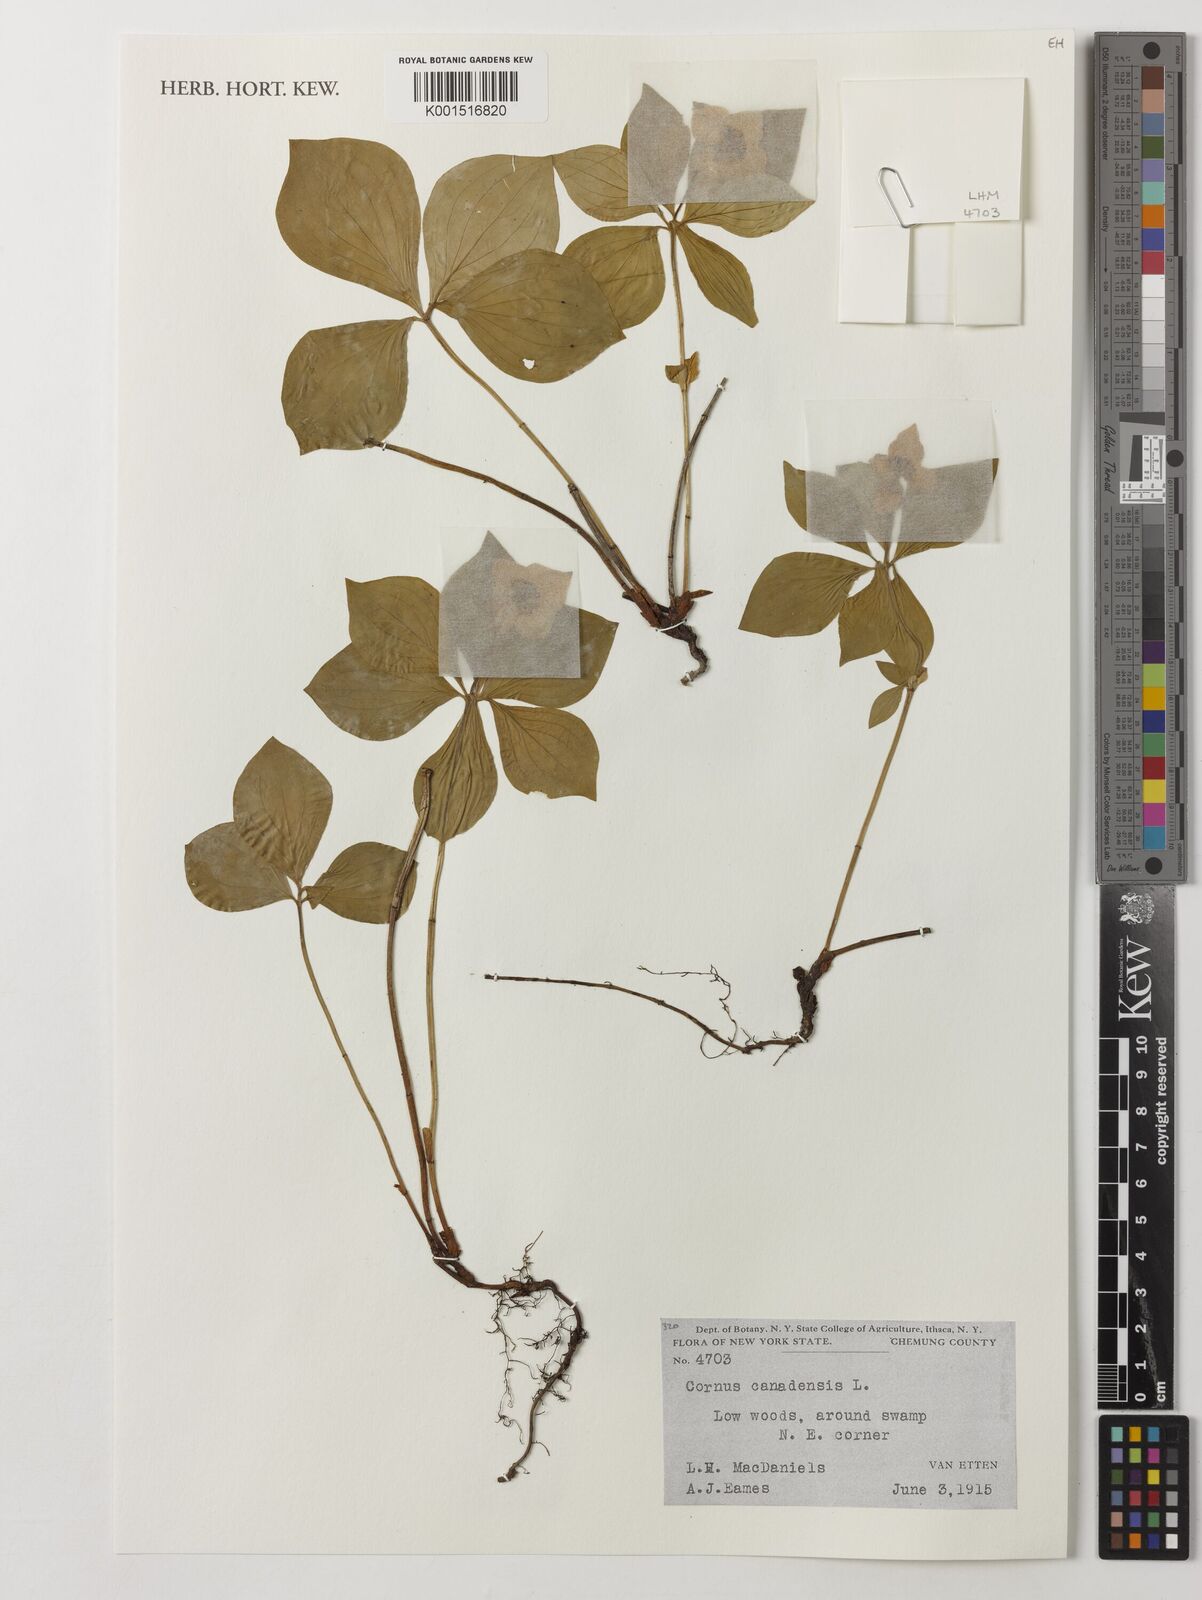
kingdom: Plantae
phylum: Tracheophyta
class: Magnoliopsida
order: Cornales
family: Cornaceae
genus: Cornus
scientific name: Cornus canadensis
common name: Creeping dogwood
